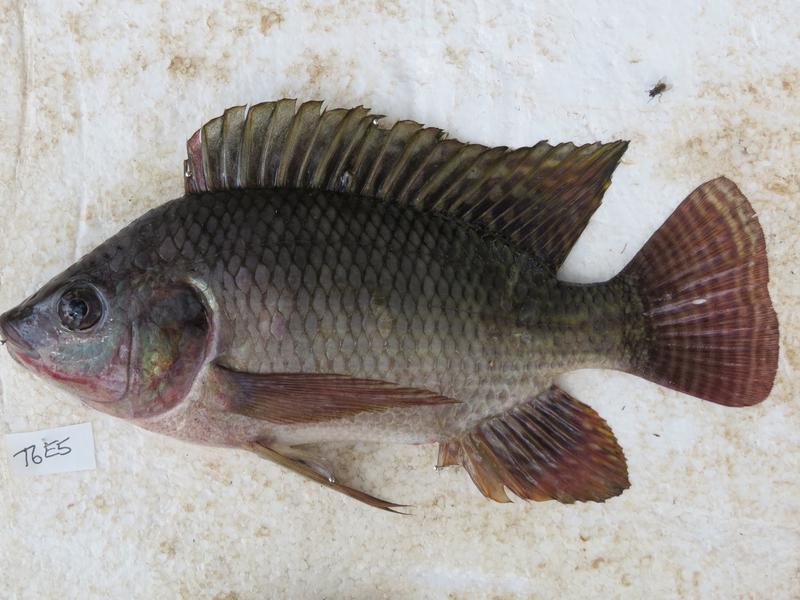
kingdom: Animalia
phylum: Chordata
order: Perciformes
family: Cichlidae
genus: Oreochromis
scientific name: Oreochromis niloticus
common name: Nile tilapia
